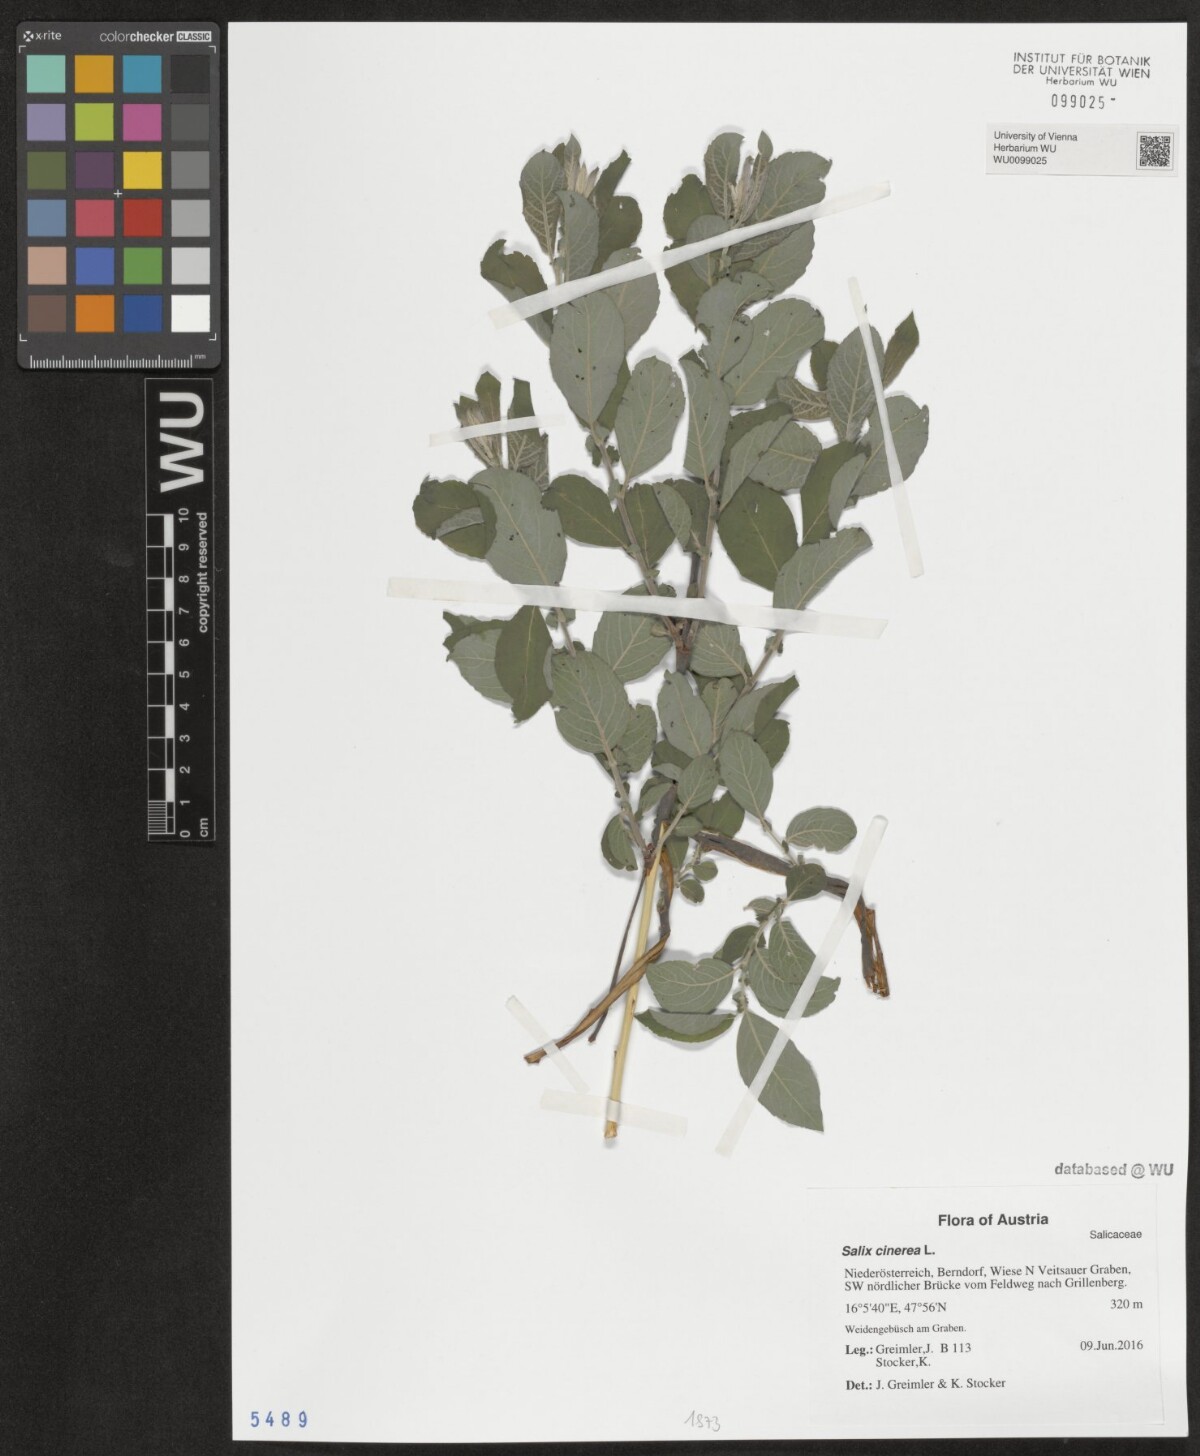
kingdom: Plantae
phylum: Tracheophyta
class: Magnoliopsida
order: Malpighiales
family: Salicaceae
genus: Salix
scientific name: Salix cinerea
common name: Common sallow
